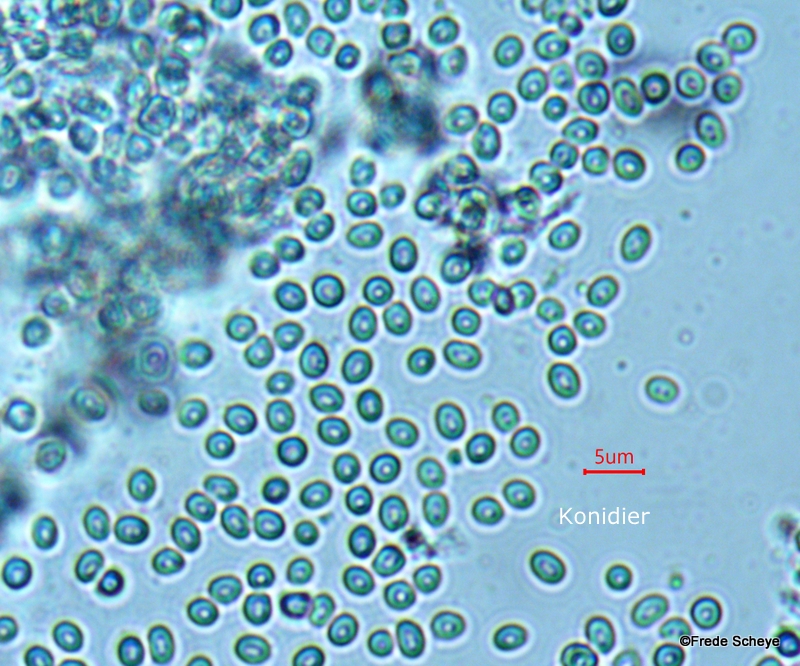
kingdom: Fungi
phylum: Ascomycota
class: Sordariomycetes
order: Hypocreales
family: Hypocreaceae
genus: Trichoderma
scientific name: Trichoderma europaeum
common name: rosabrun kødkerne
